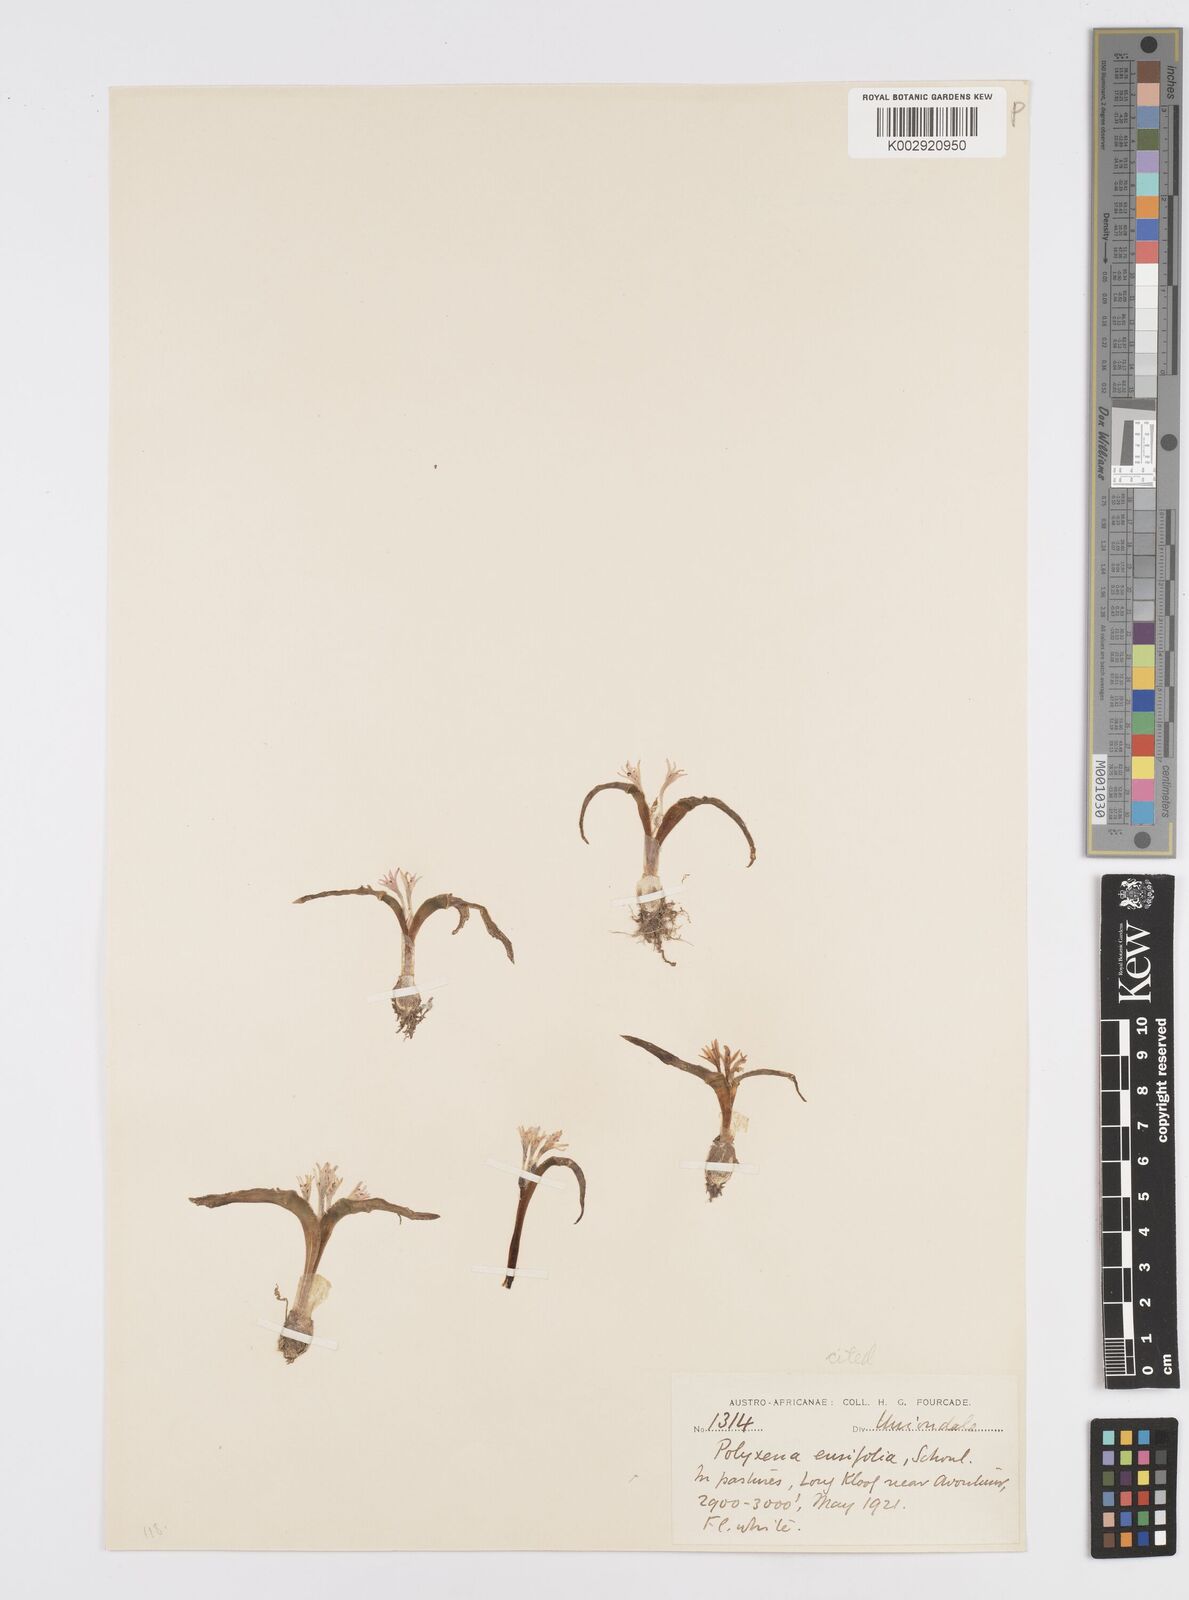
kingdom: Plantae
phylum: Tracheophyta
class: Liliopsida
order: Asparagales
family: Asparagaceae
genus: Lachenalia
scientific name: Lachenalia ensifolia
